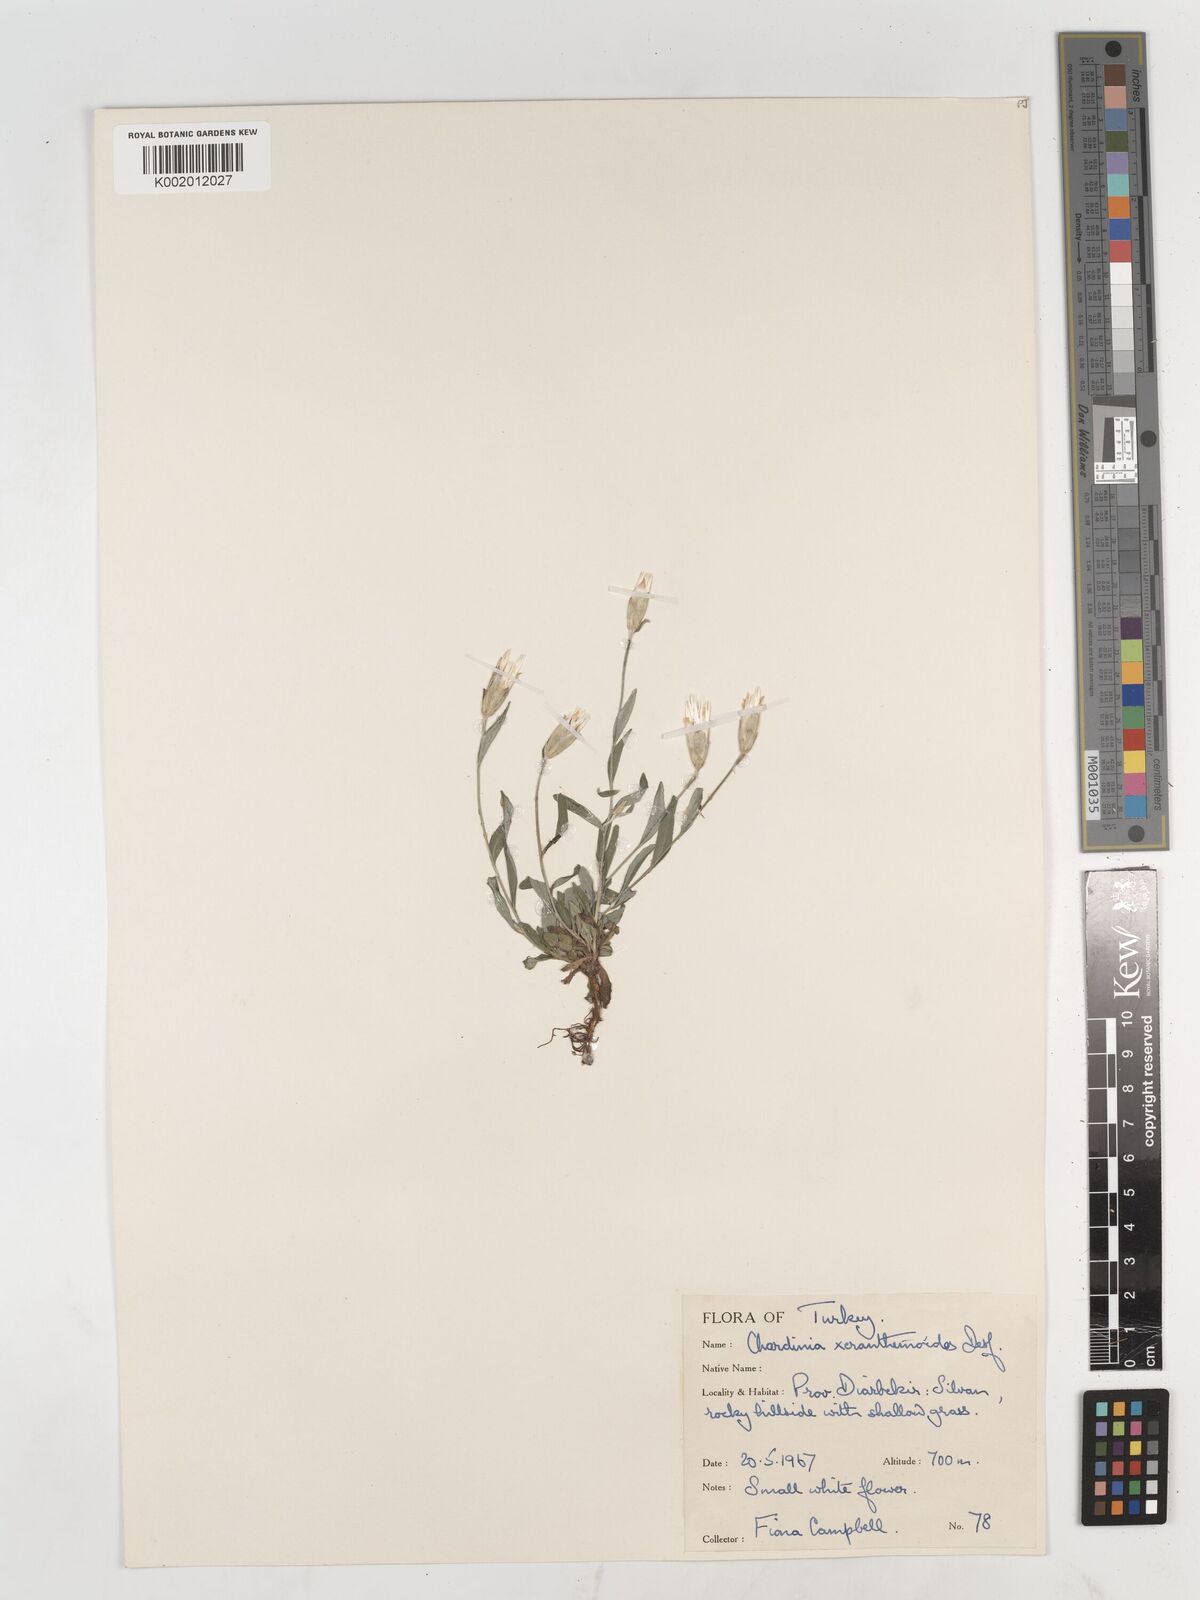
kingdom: Plantae
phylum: Tracheophyta
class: Magnoliopsida
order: Asterales
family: Asteraceae
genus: Chardinia
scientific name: Chardinia orientalis
